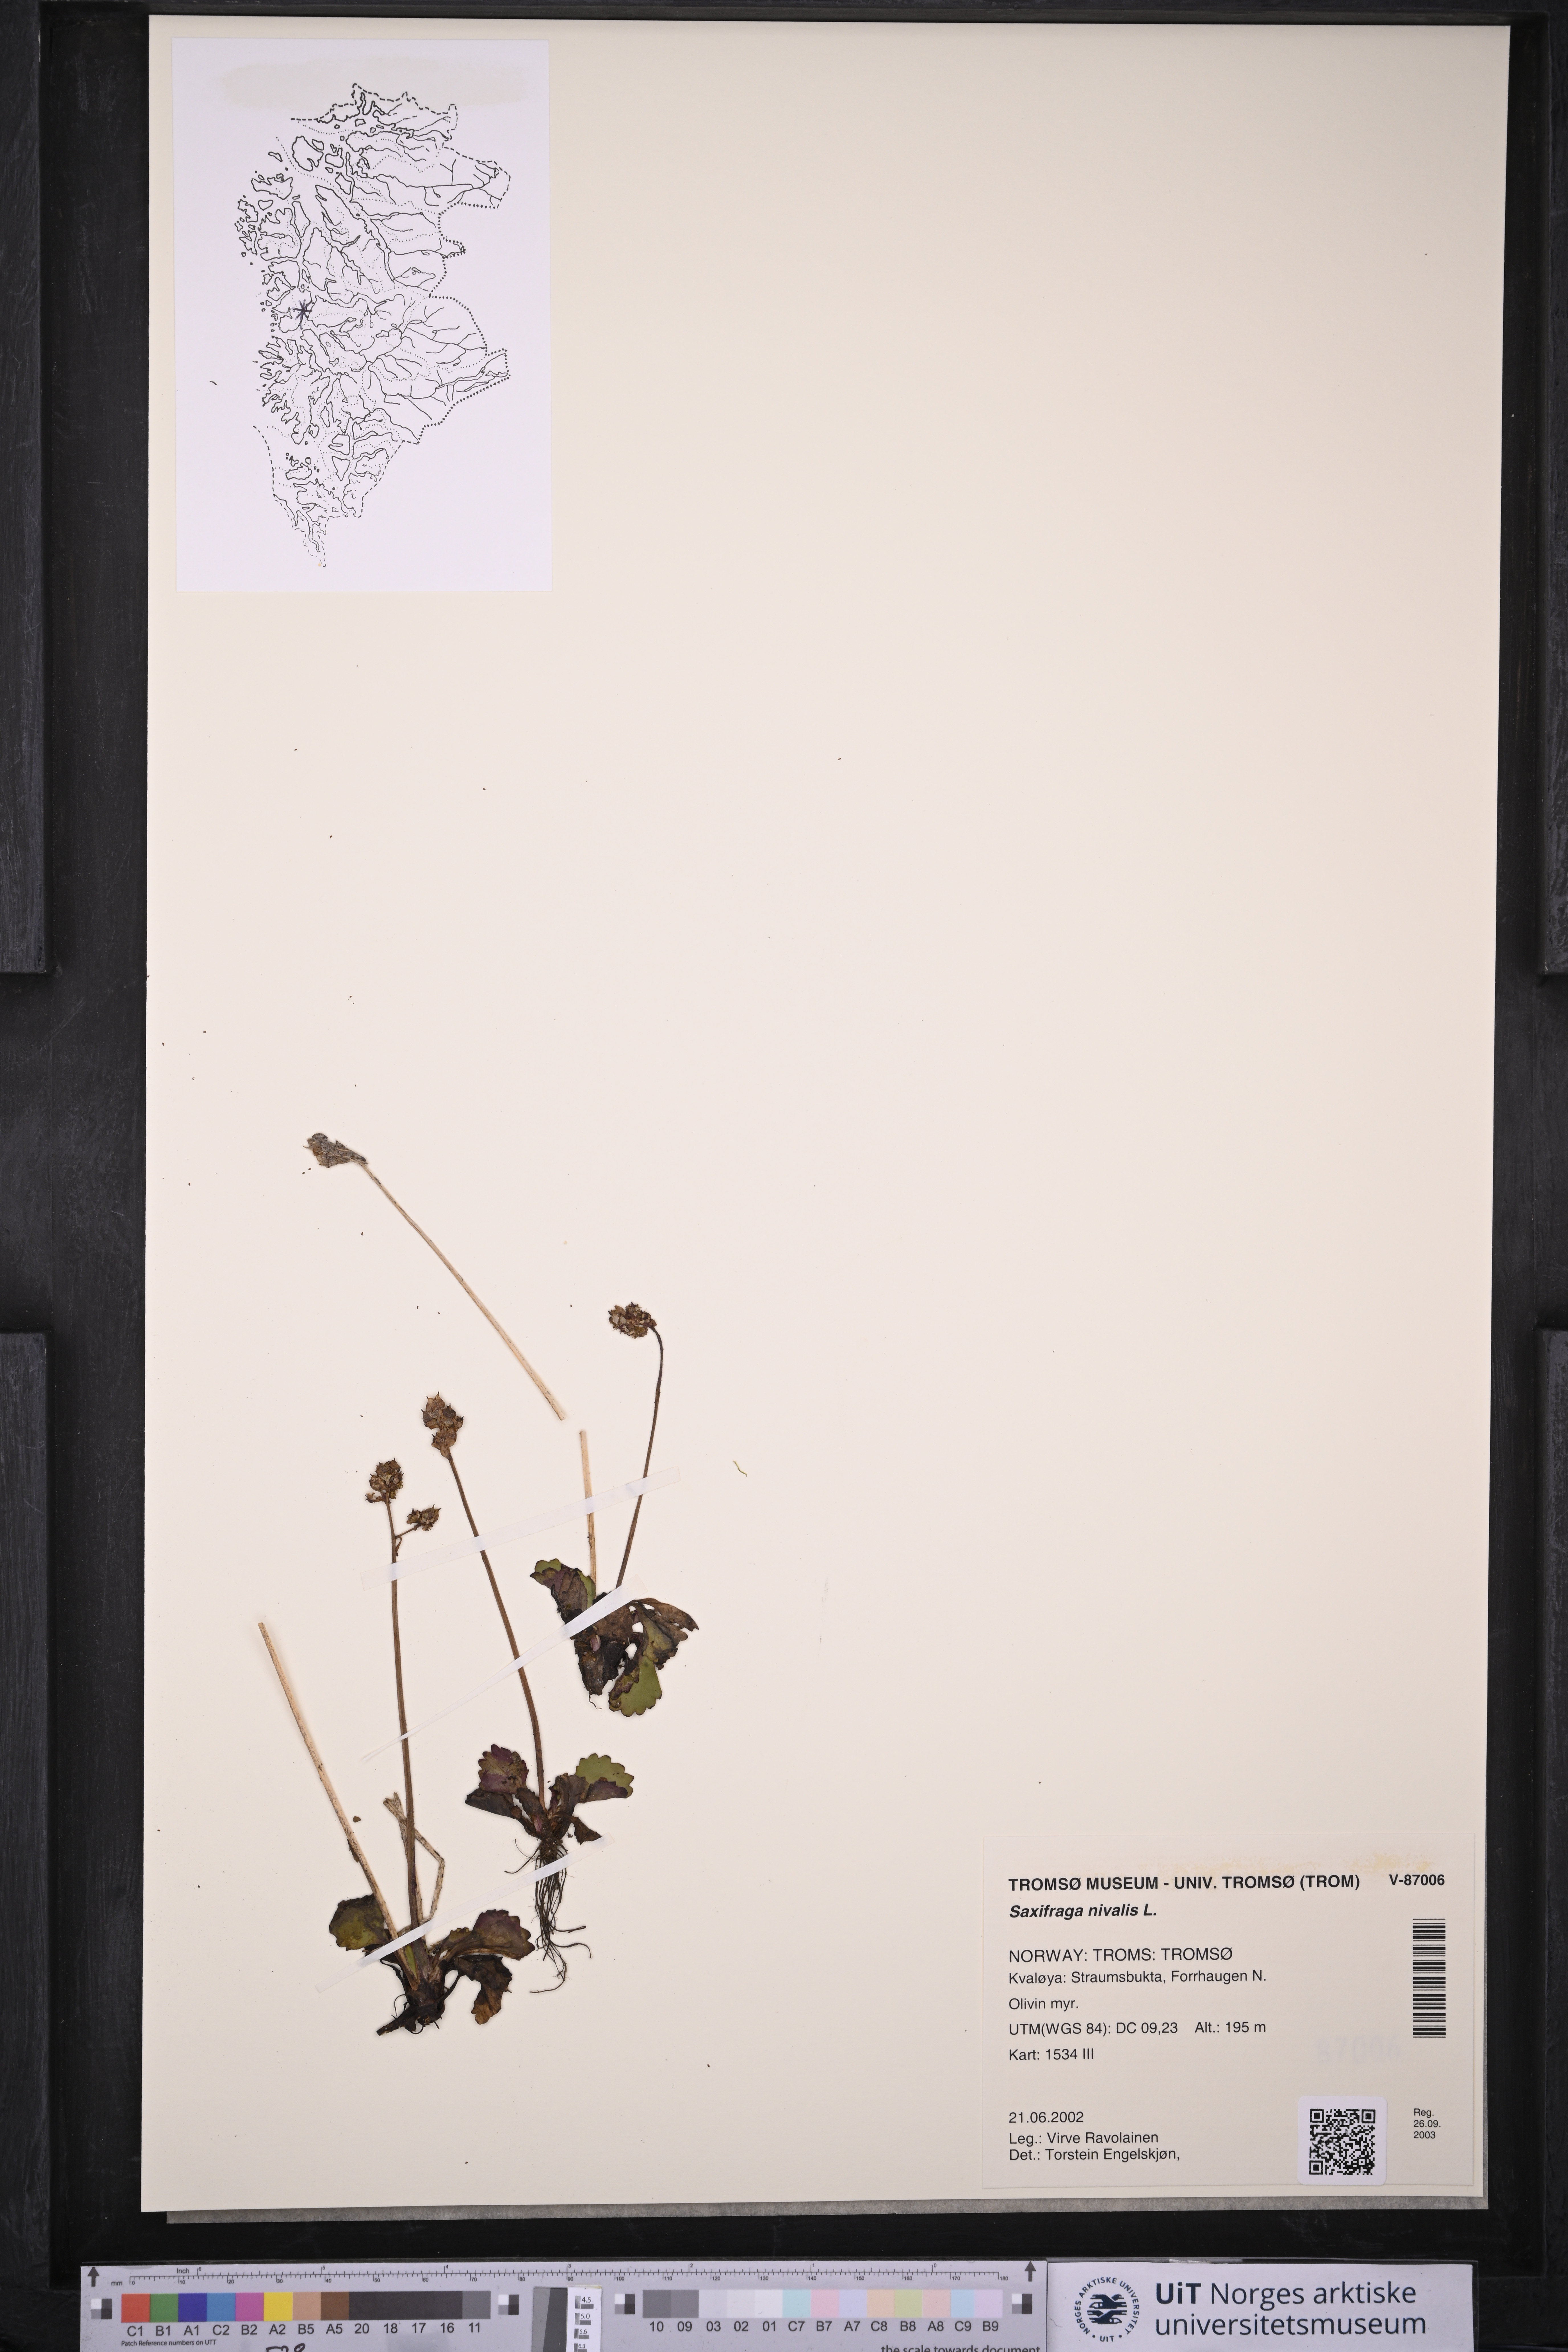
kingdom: Plantae
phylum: Tracheophyta
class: Magnoliopsida
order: Saxifragales
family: Saxifragaceae
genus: Micranthes
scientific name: Micranthes nivalis
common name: Alpine saxifrage
